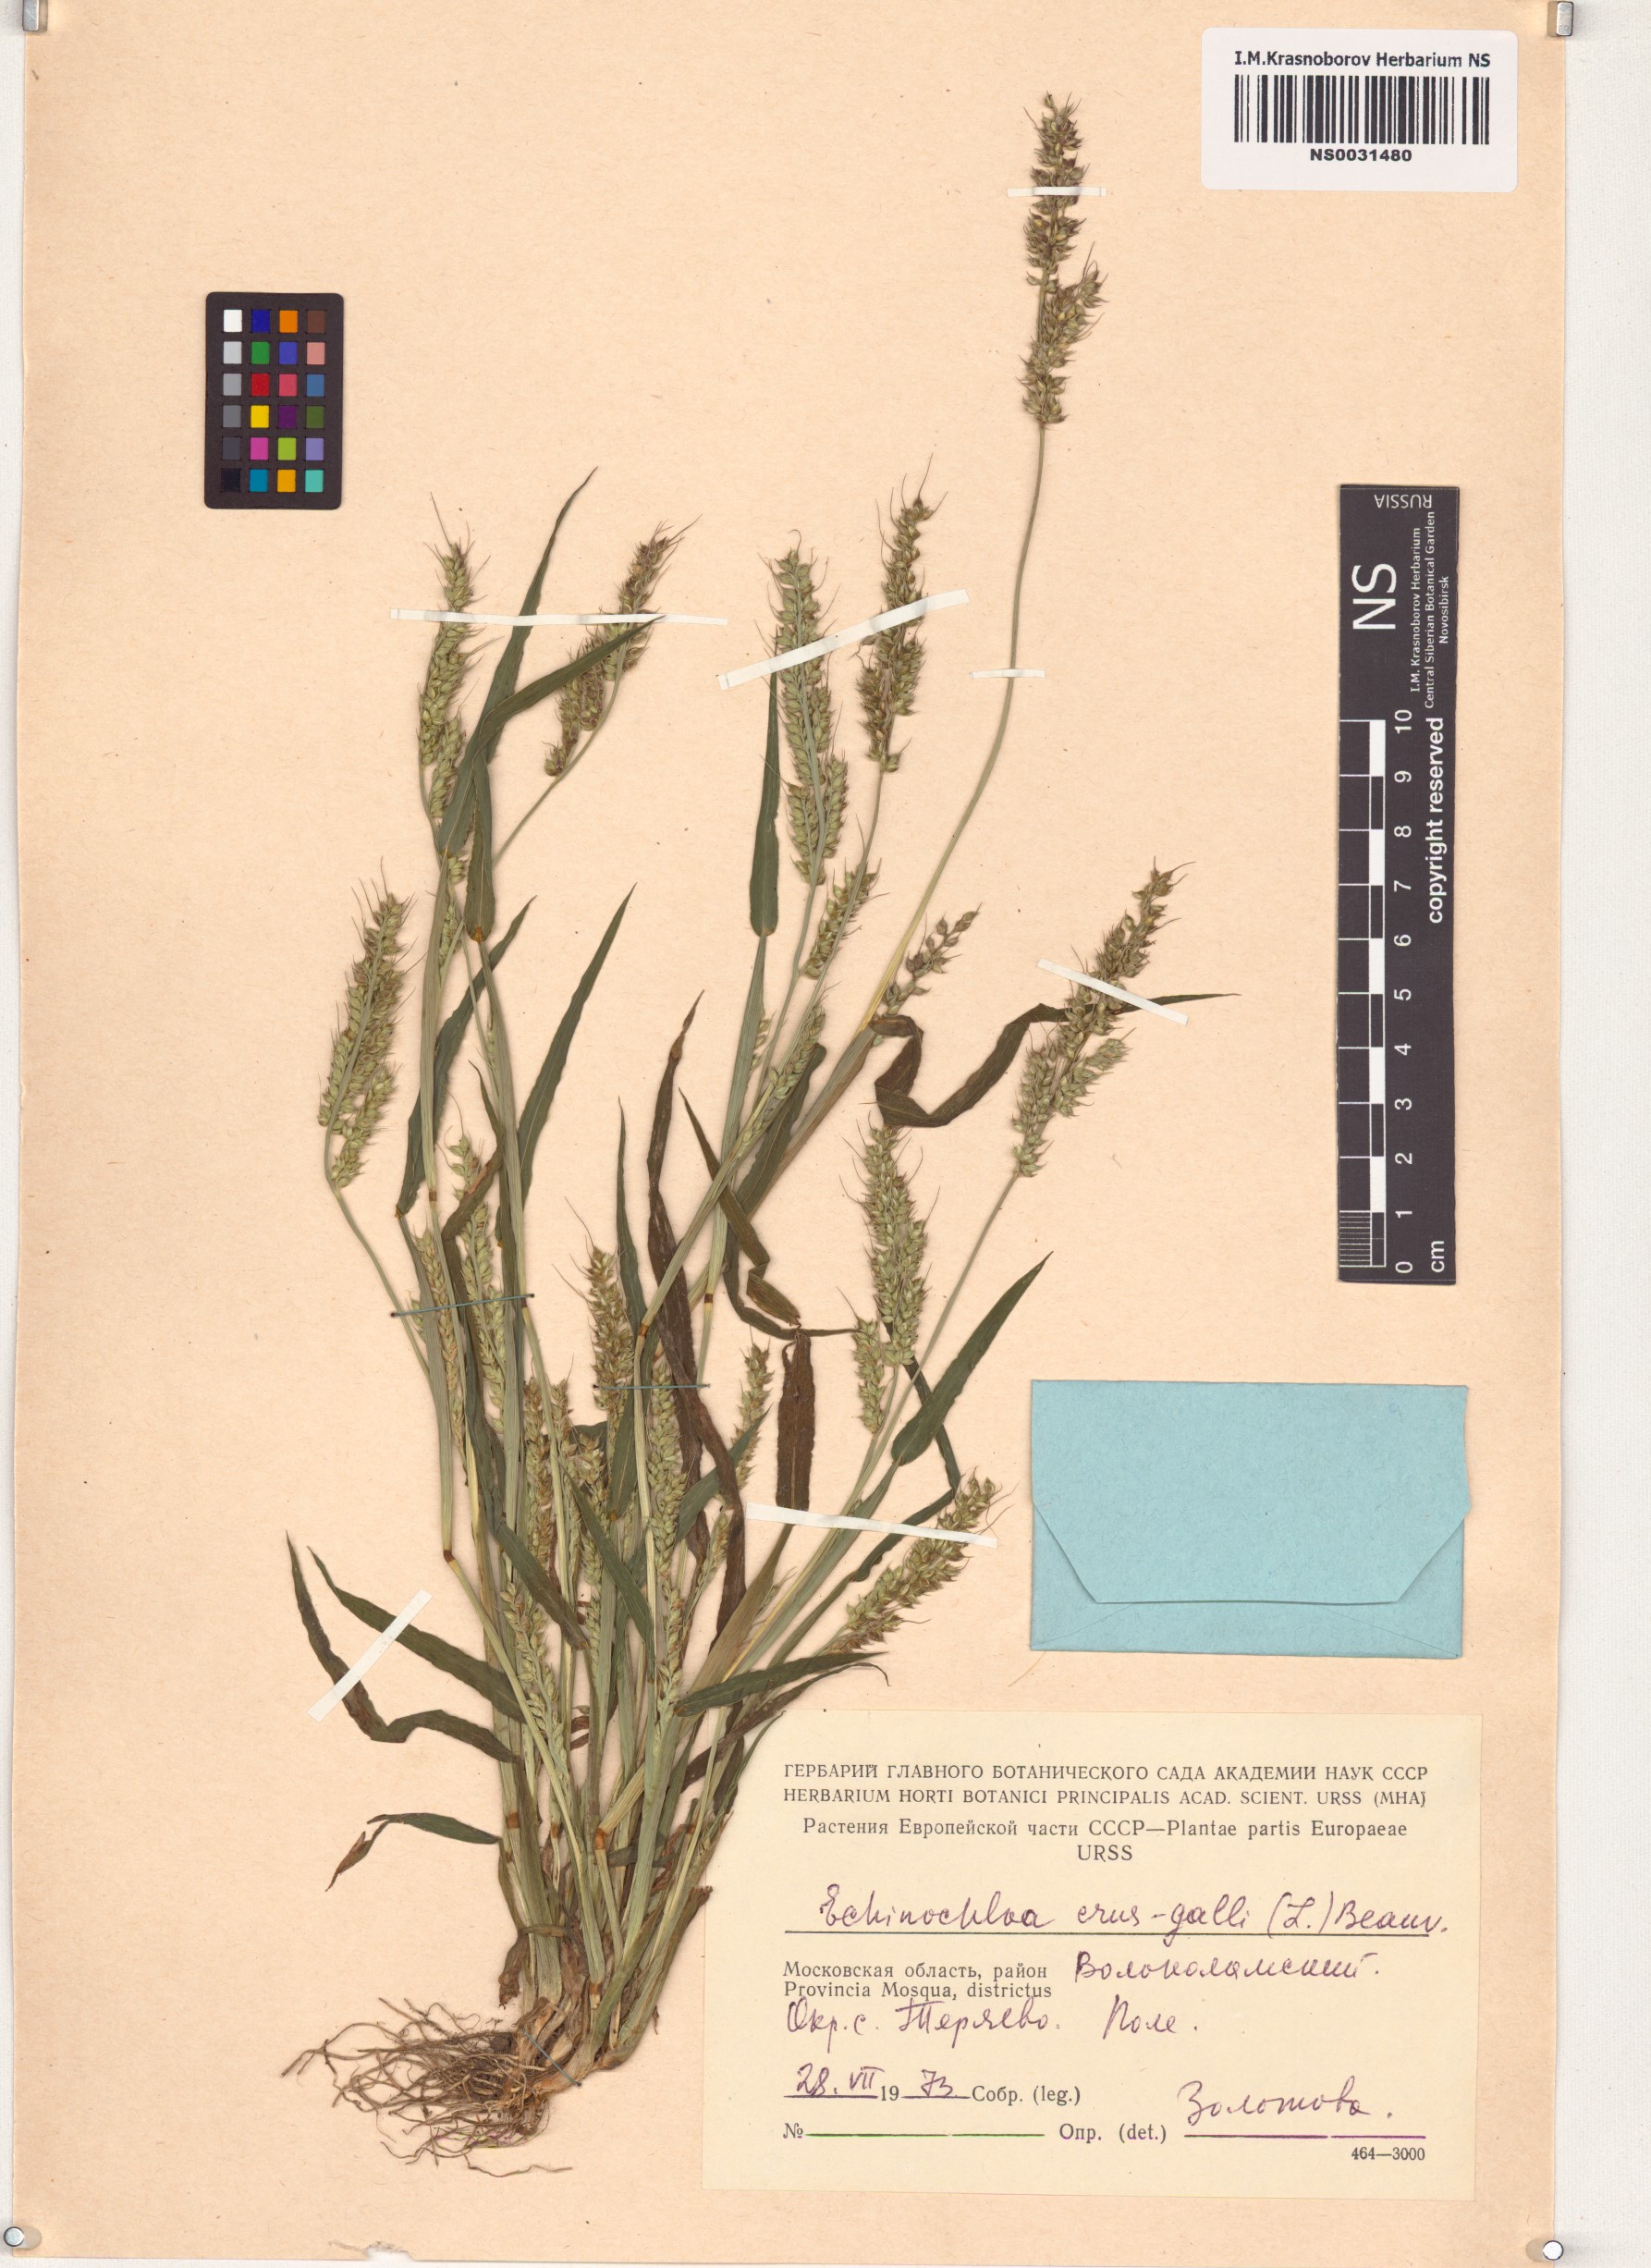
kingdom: Plantae
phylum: Tracheophyta
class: Liliopsida
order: Poales
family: Poaceae
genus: Echinochloa
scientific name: Echinochloa crus-galli
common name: Cockspur
